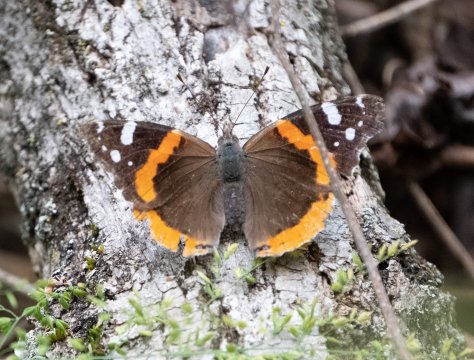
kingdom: Animalia
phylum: Arthropoda
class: Insecta
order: Lepidoptera
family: Nymphalidae
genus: Vanessa
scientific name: Vanessa atalanta
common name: Red Admiral
